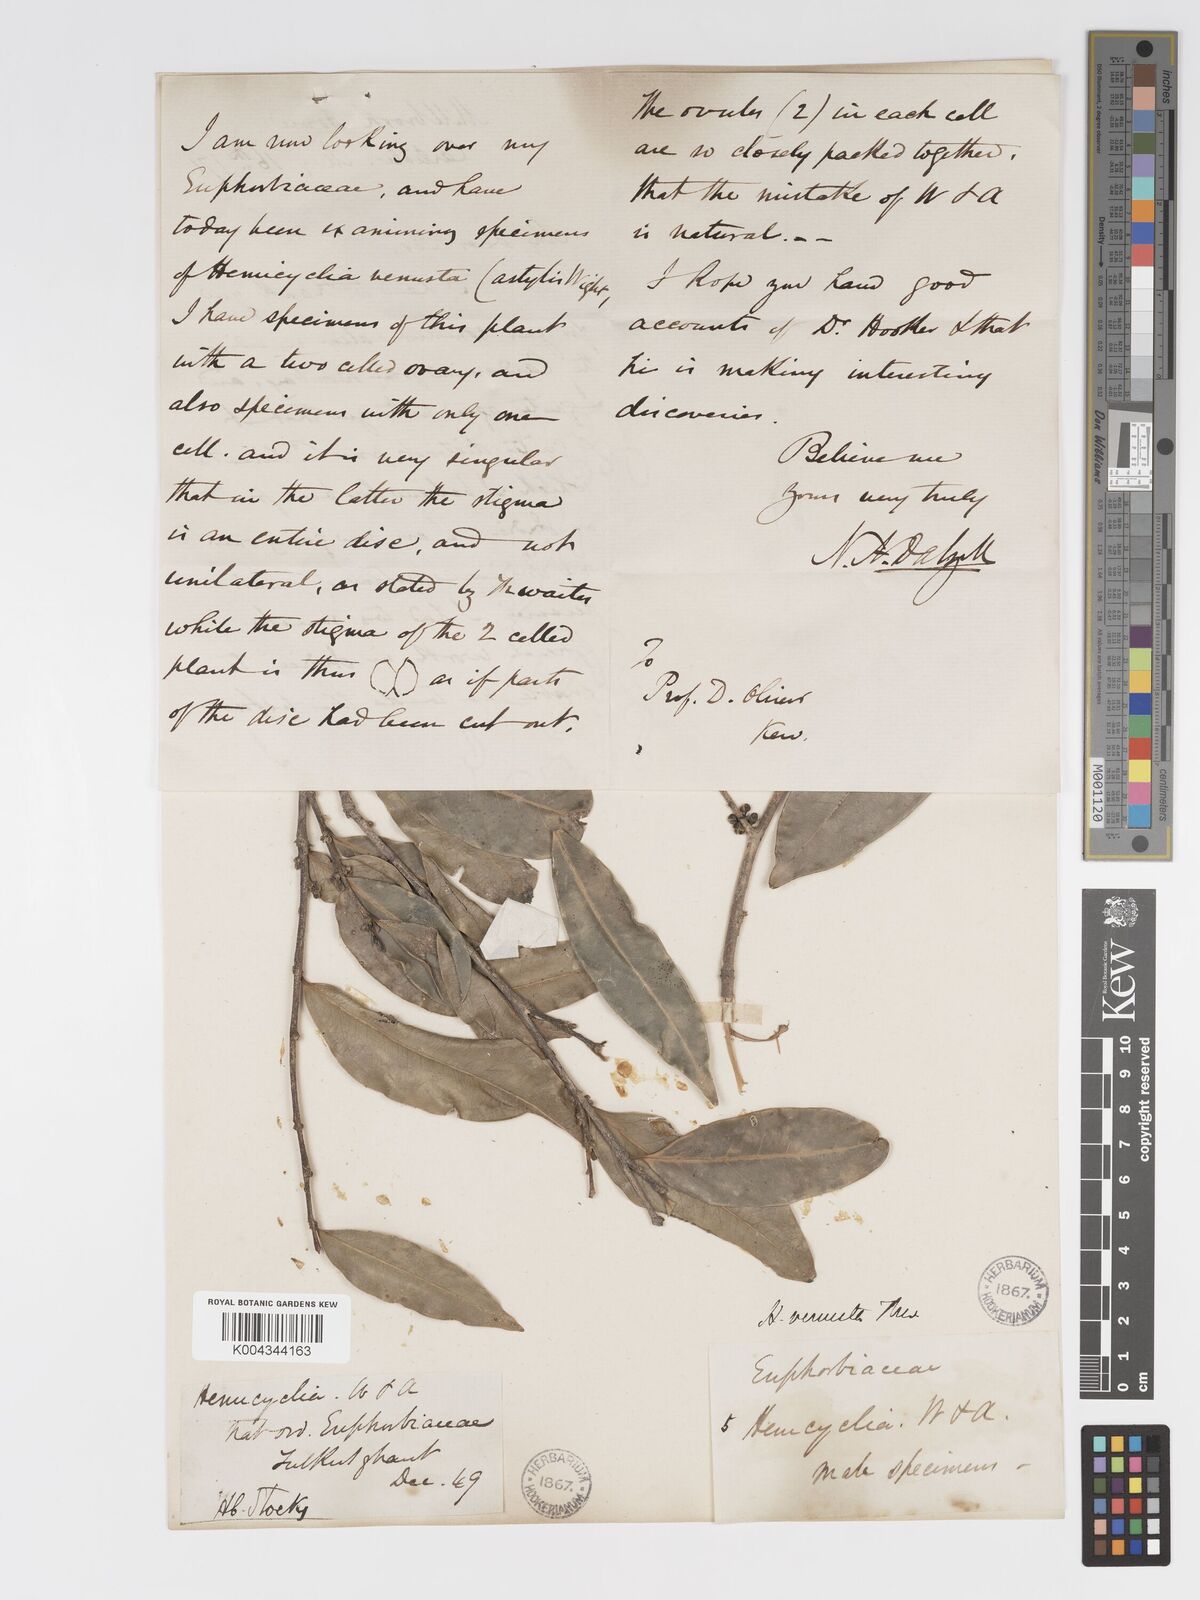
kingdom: Plantae
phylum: Tracheophyta
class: Magnoliopsida
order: Malpighiales
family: Putranjivaceae
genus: Drypetes
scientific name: Drypetes venusta
